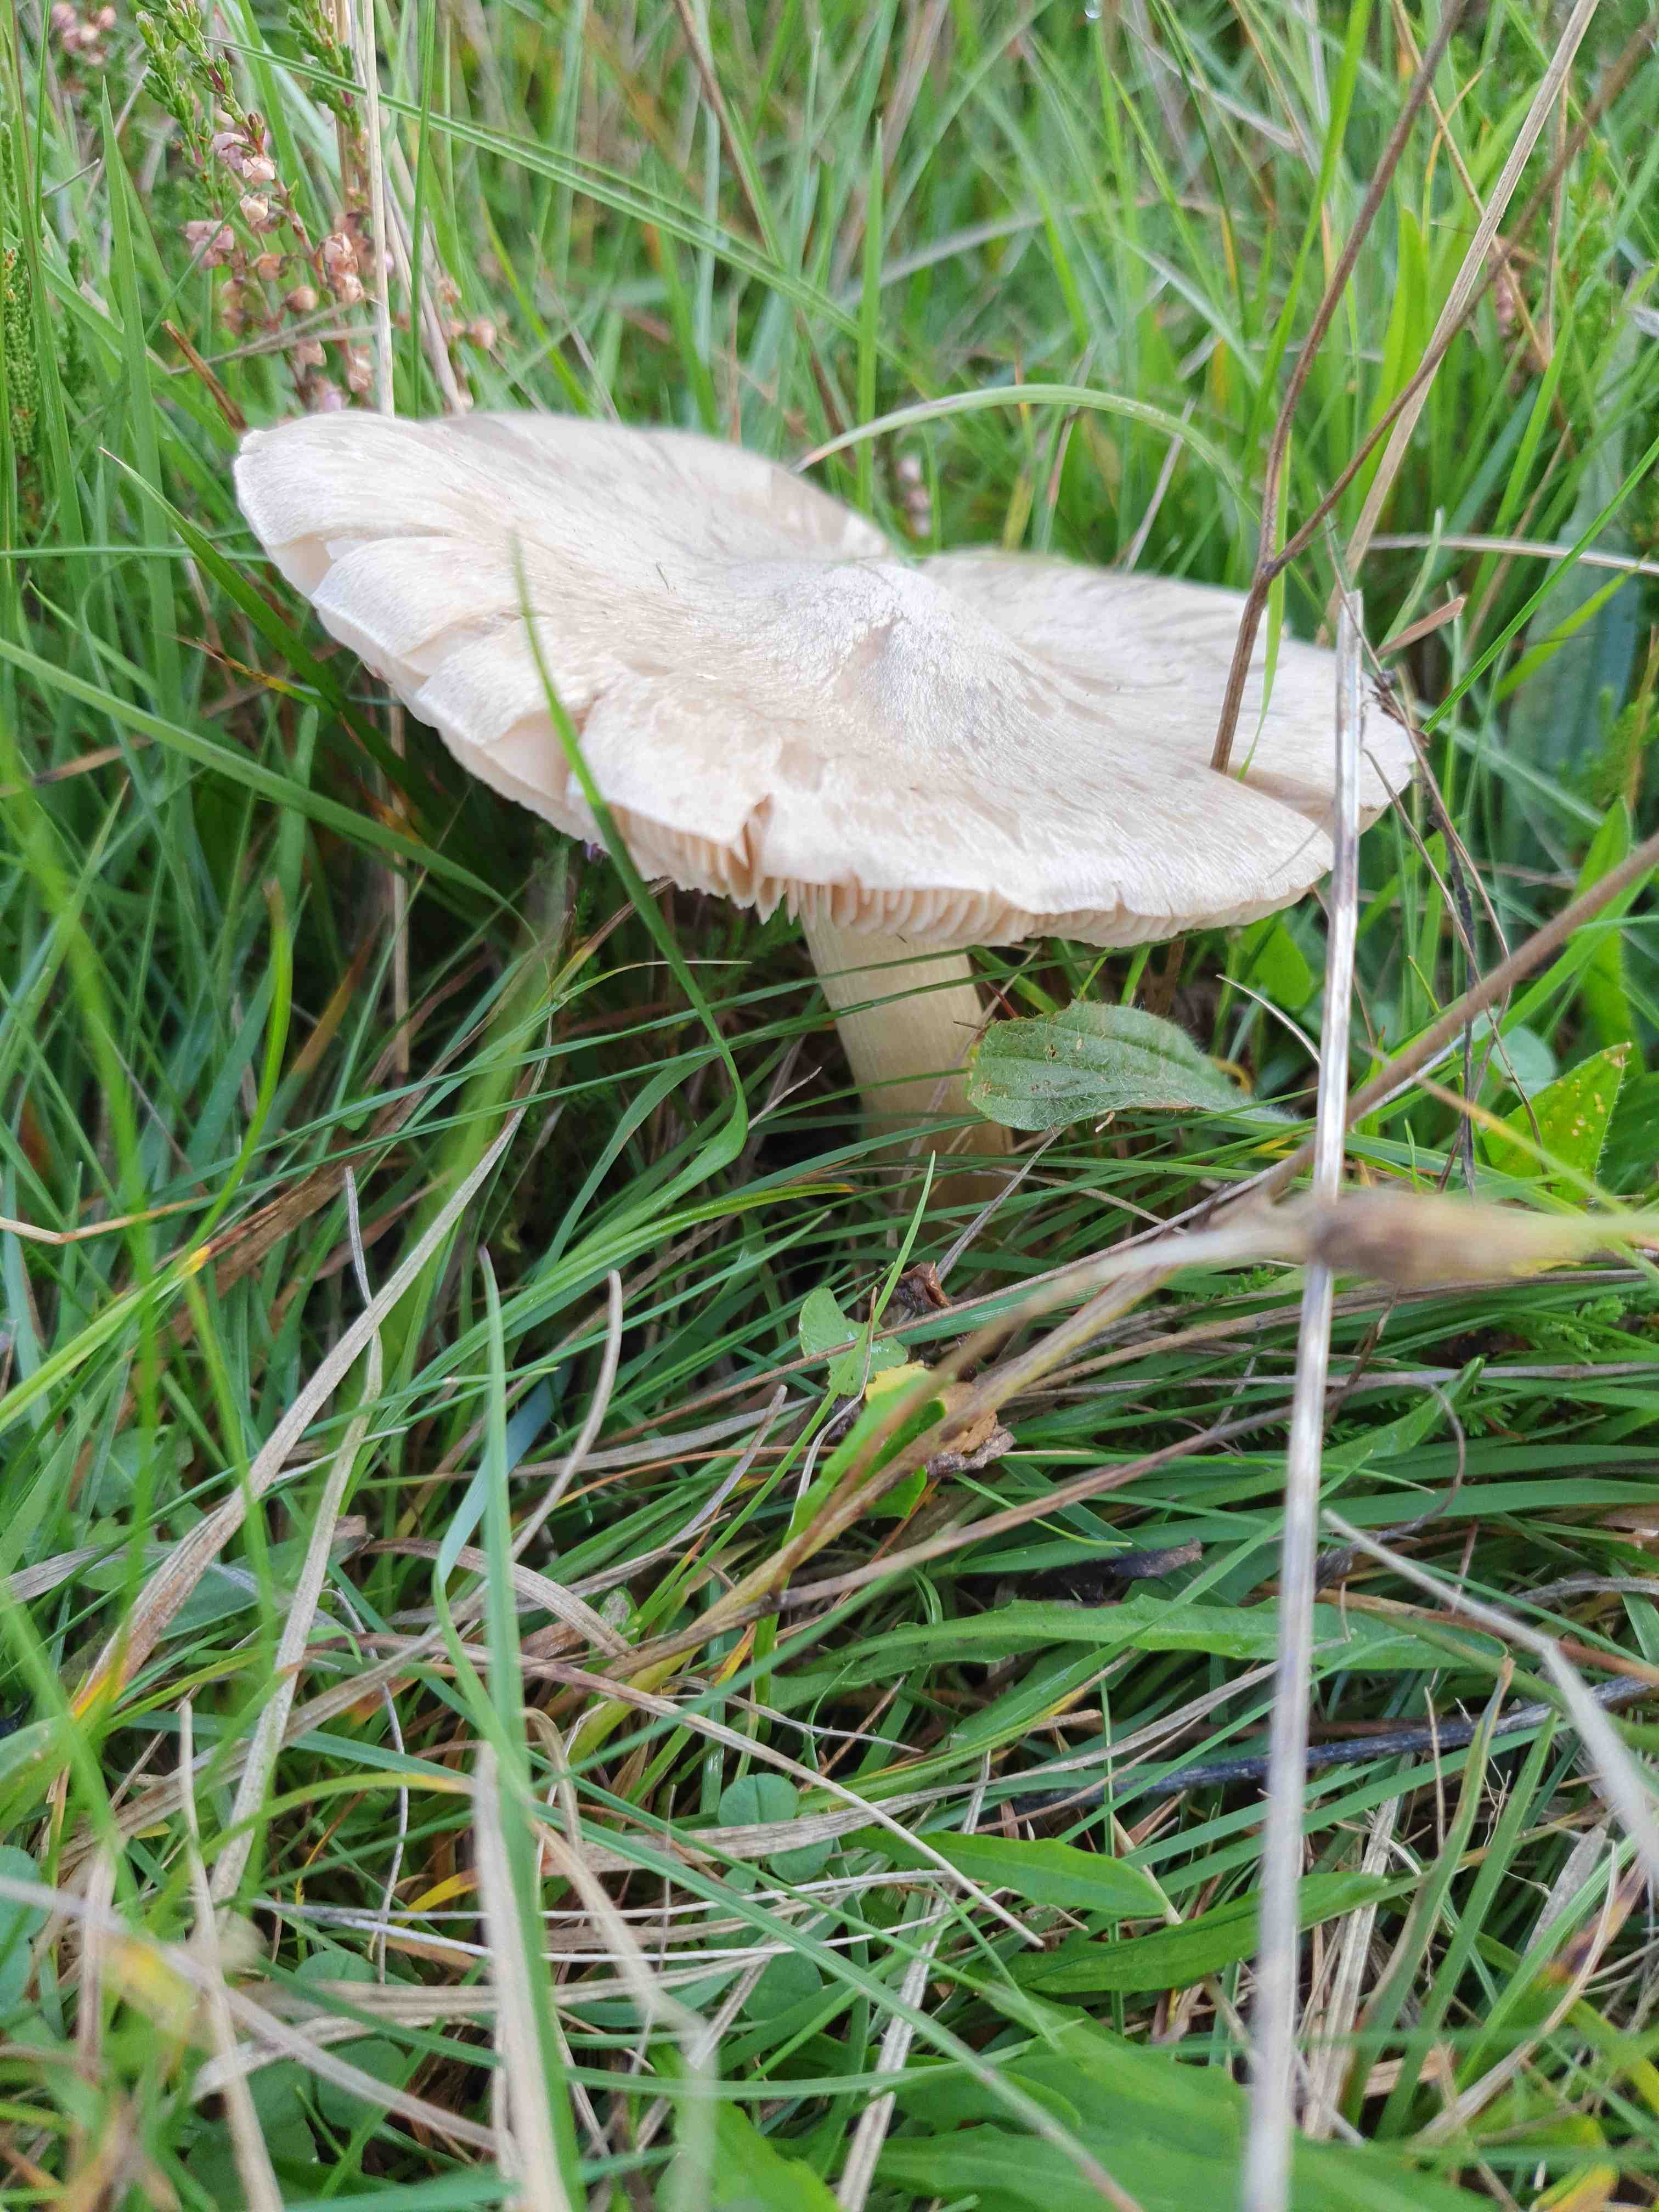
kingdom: Fungi
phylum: Basidiomycota
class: Agaricomycetes
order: Agaricales
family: Entolomataceae
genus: Entoloma
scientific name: Entoloma prunuloides
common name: mel-rødblad
